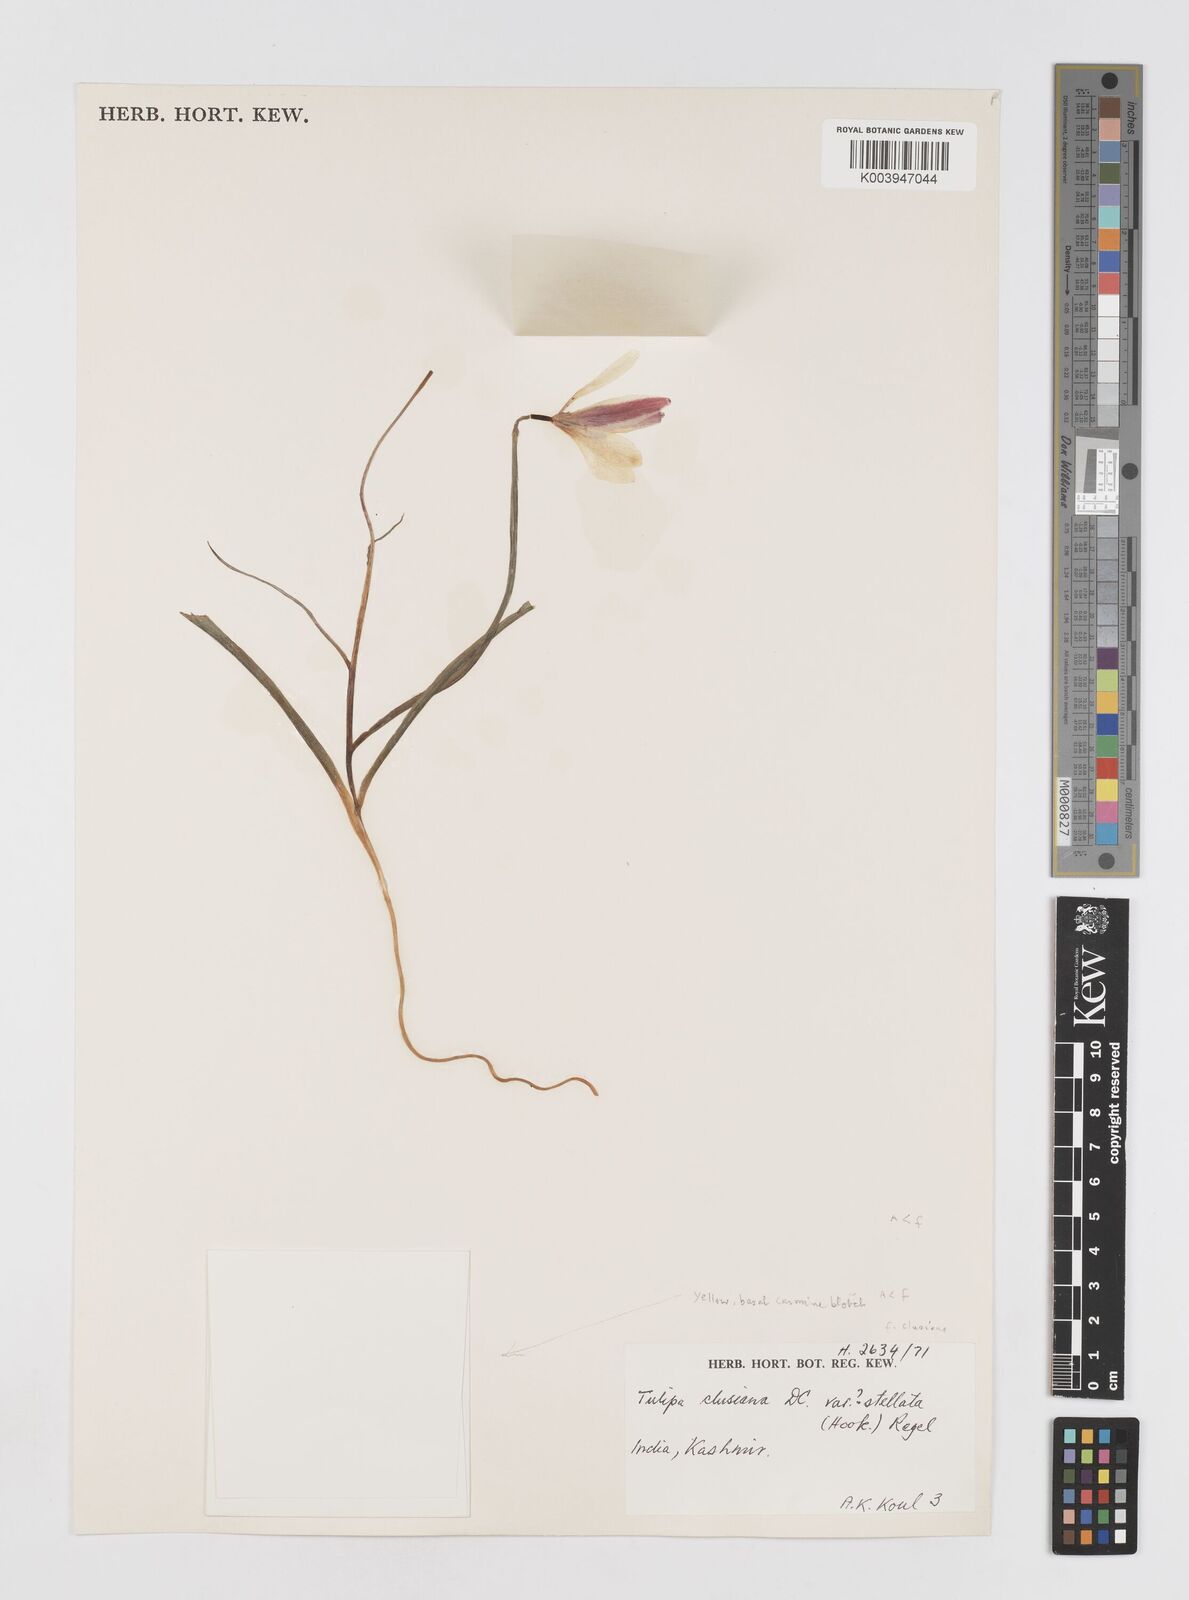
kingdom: Plantae
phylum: Tracheophyta
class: Liliopsida
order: Liliales
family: Liliaceae
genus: Tulipa
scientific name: Tulipa clusiana
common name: Lady tulip
